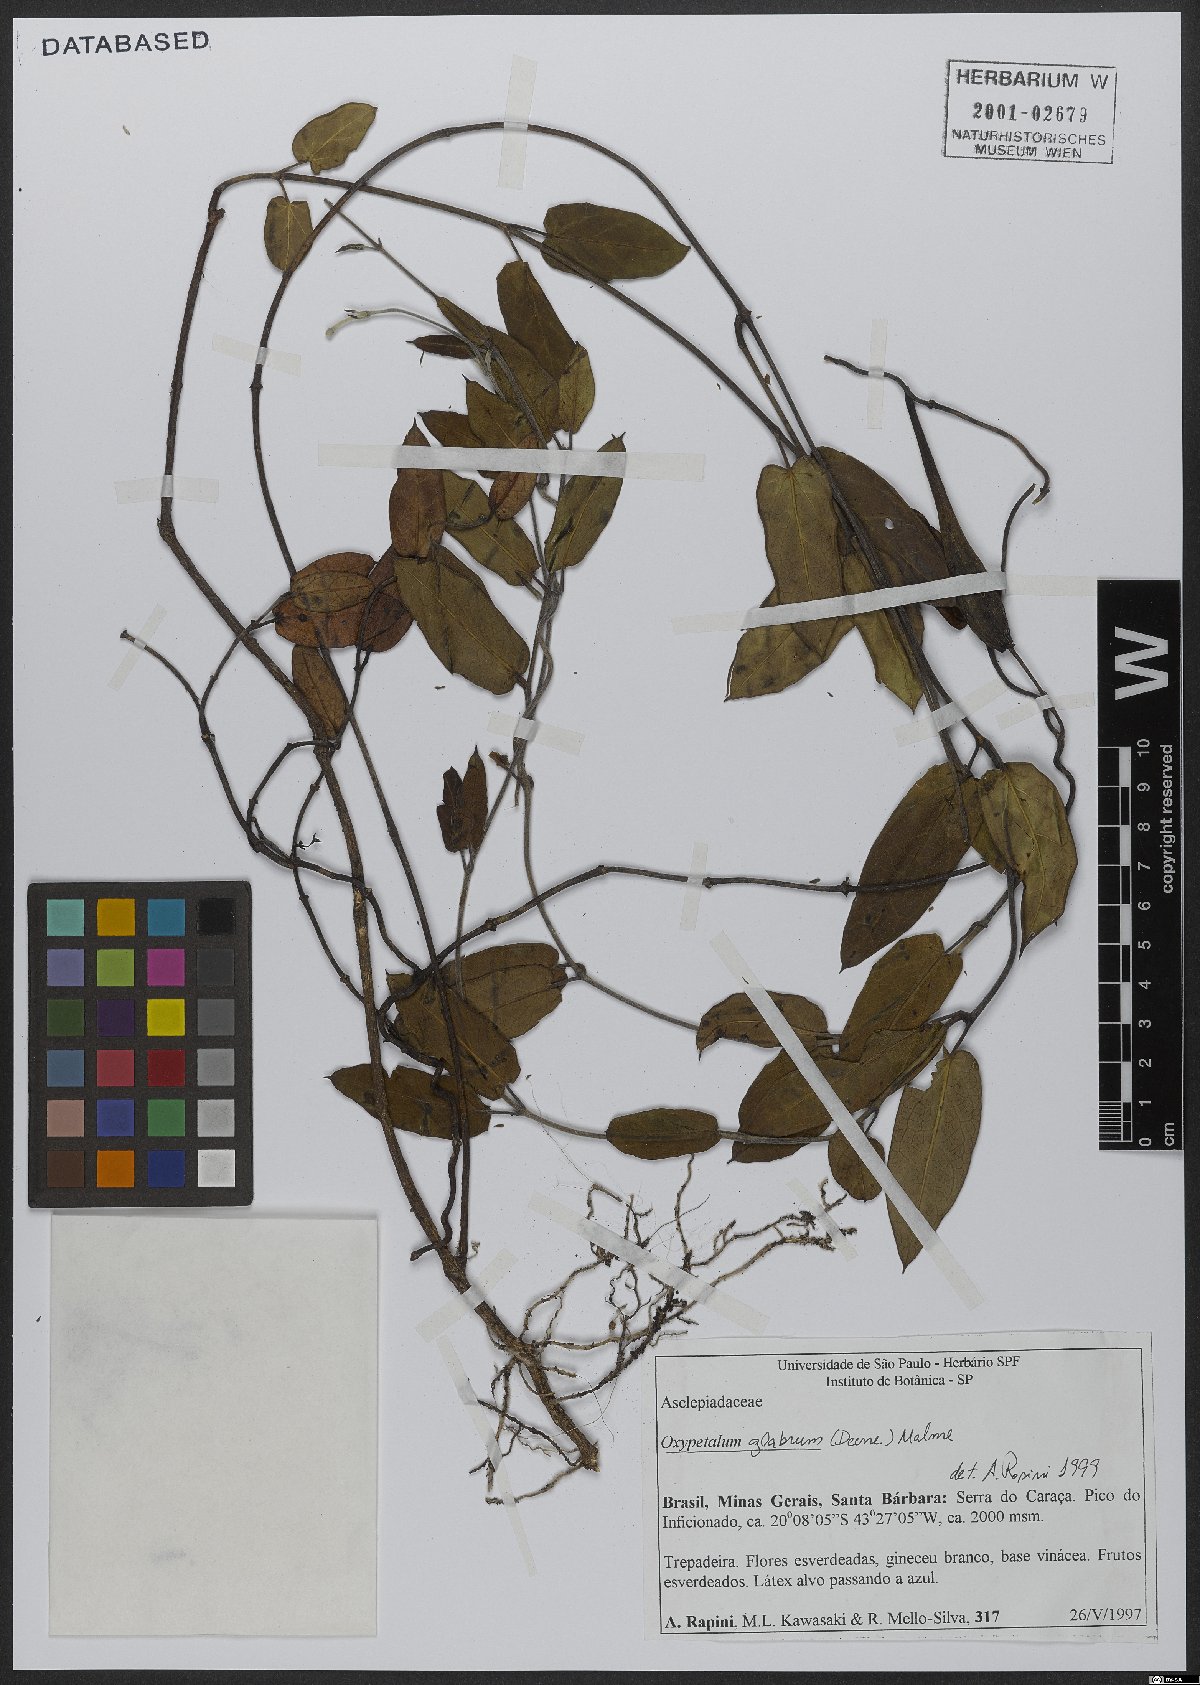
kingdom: Plantae
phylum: Tracheophyta
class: Magnoliopsida
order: Gentianales
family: Apocynaceae
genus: Oxypetalum
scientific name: Oxypetalum insigne
